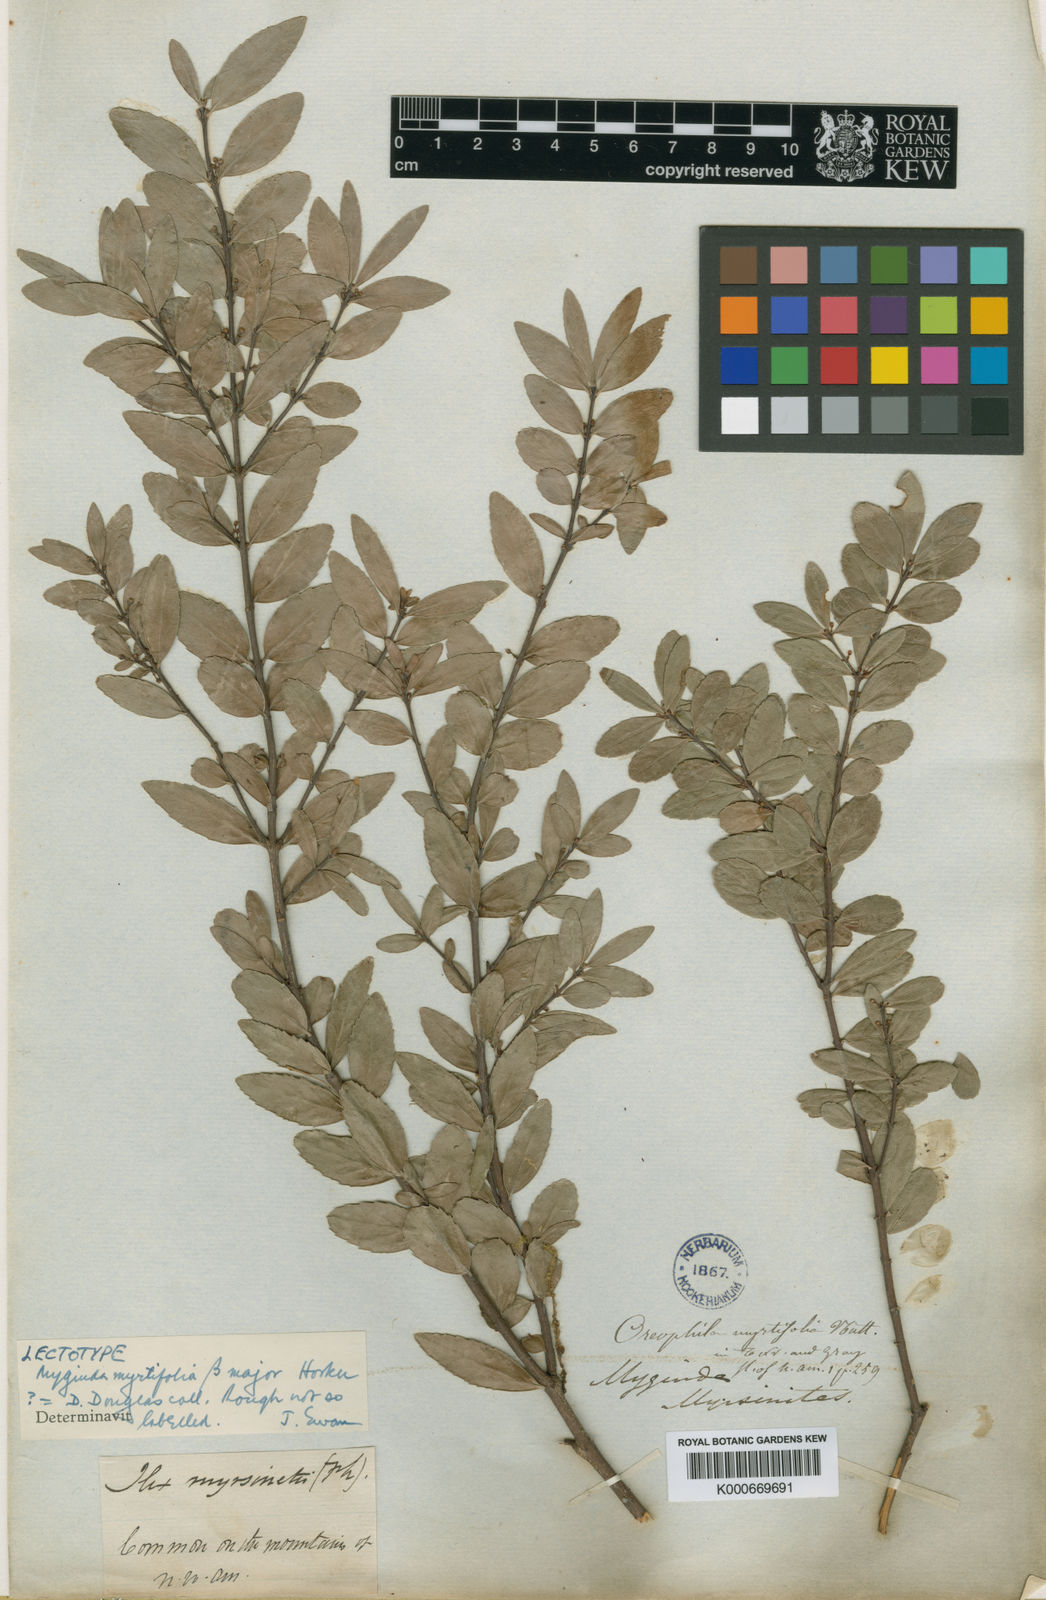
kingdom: Plantae
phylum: Tracheophyta
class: Magnoliopsida
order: Celastrales
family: Celastraceae
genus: Paxistima
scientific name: Paxistima myrsinites
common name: Mountain-lover
